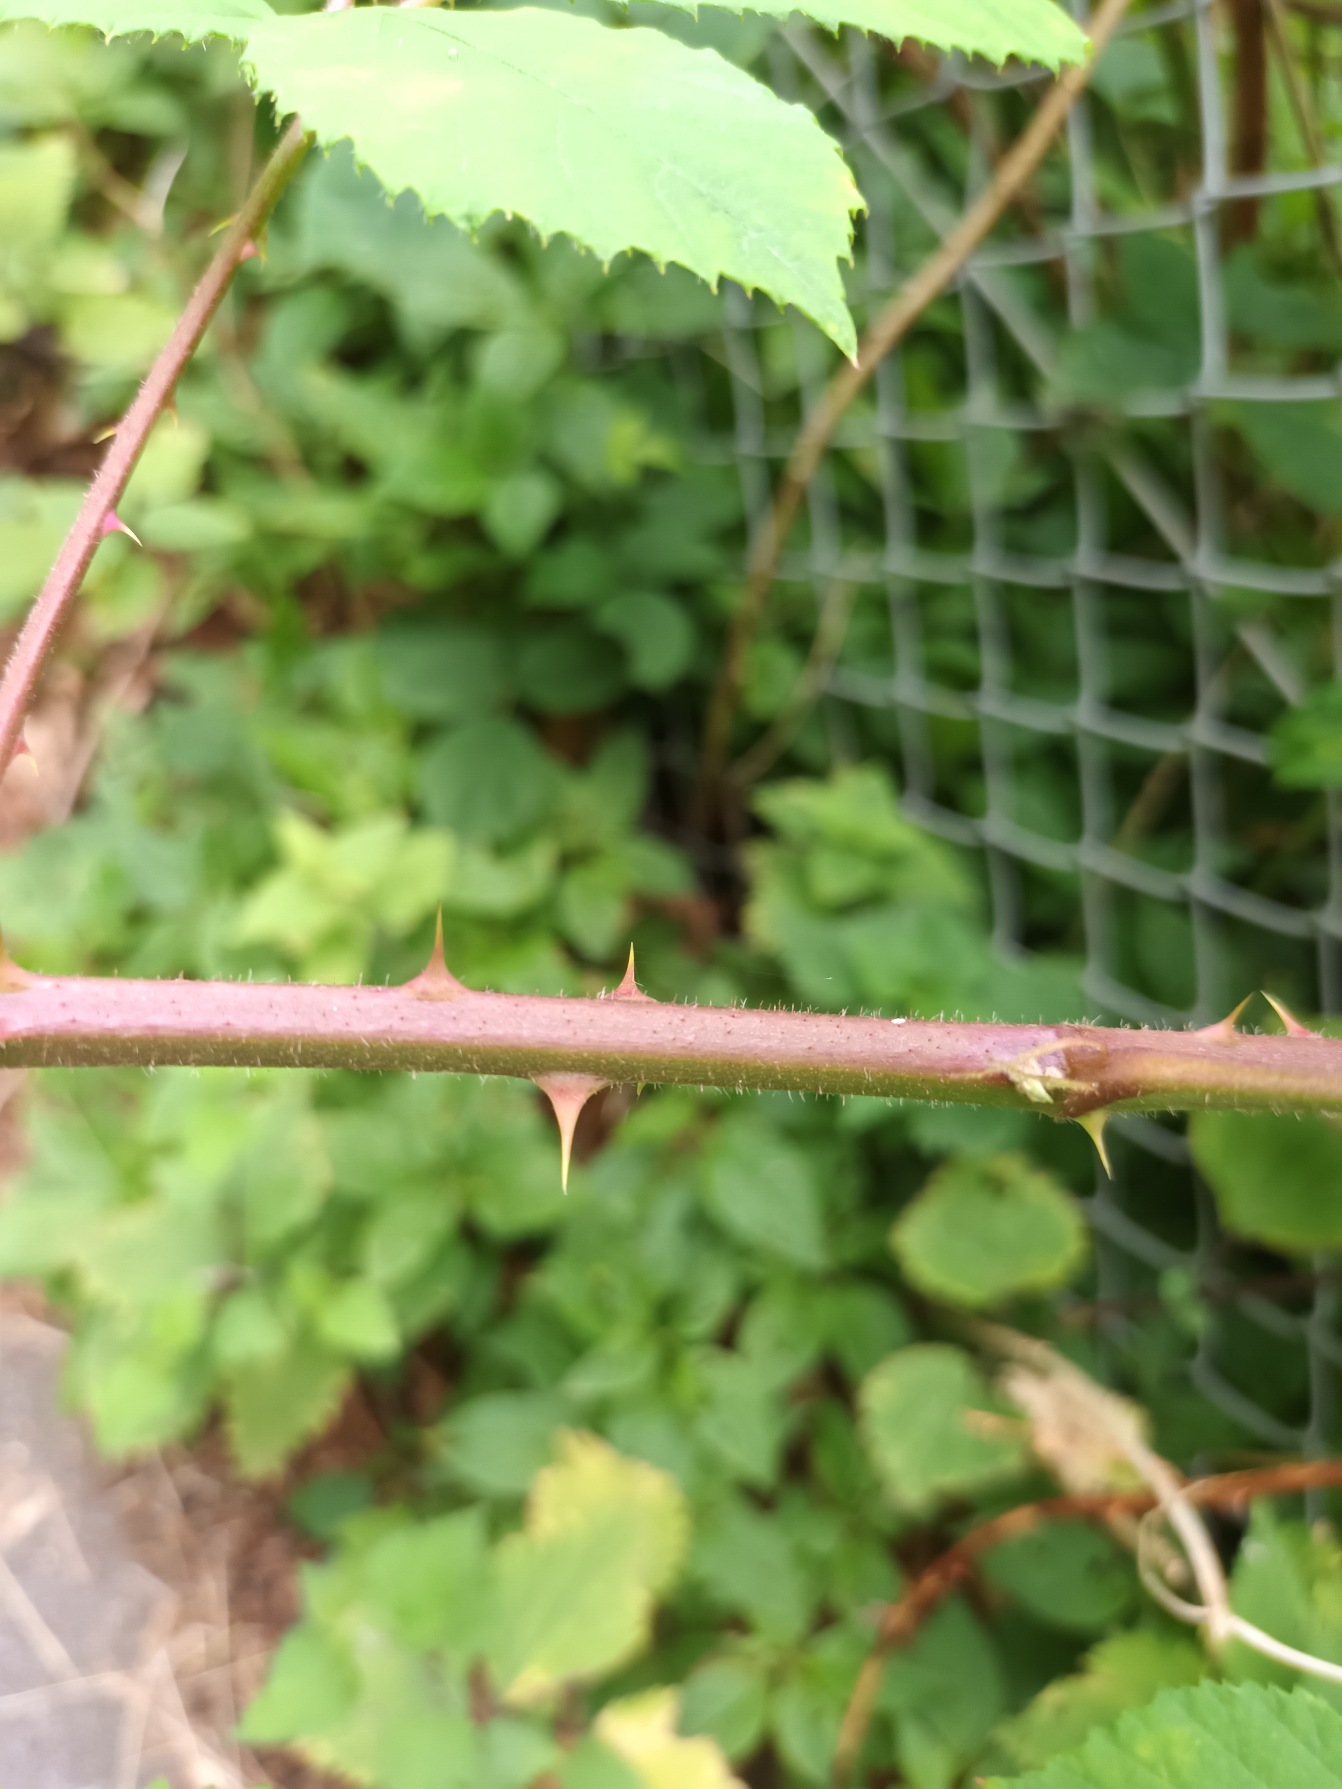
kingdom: Plantae
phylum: Tracheophyta
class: Magnoliopsida
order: Rosales
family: Rosaceae
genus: Rubus
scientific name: Rubus radula
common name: Rasperu brombær
